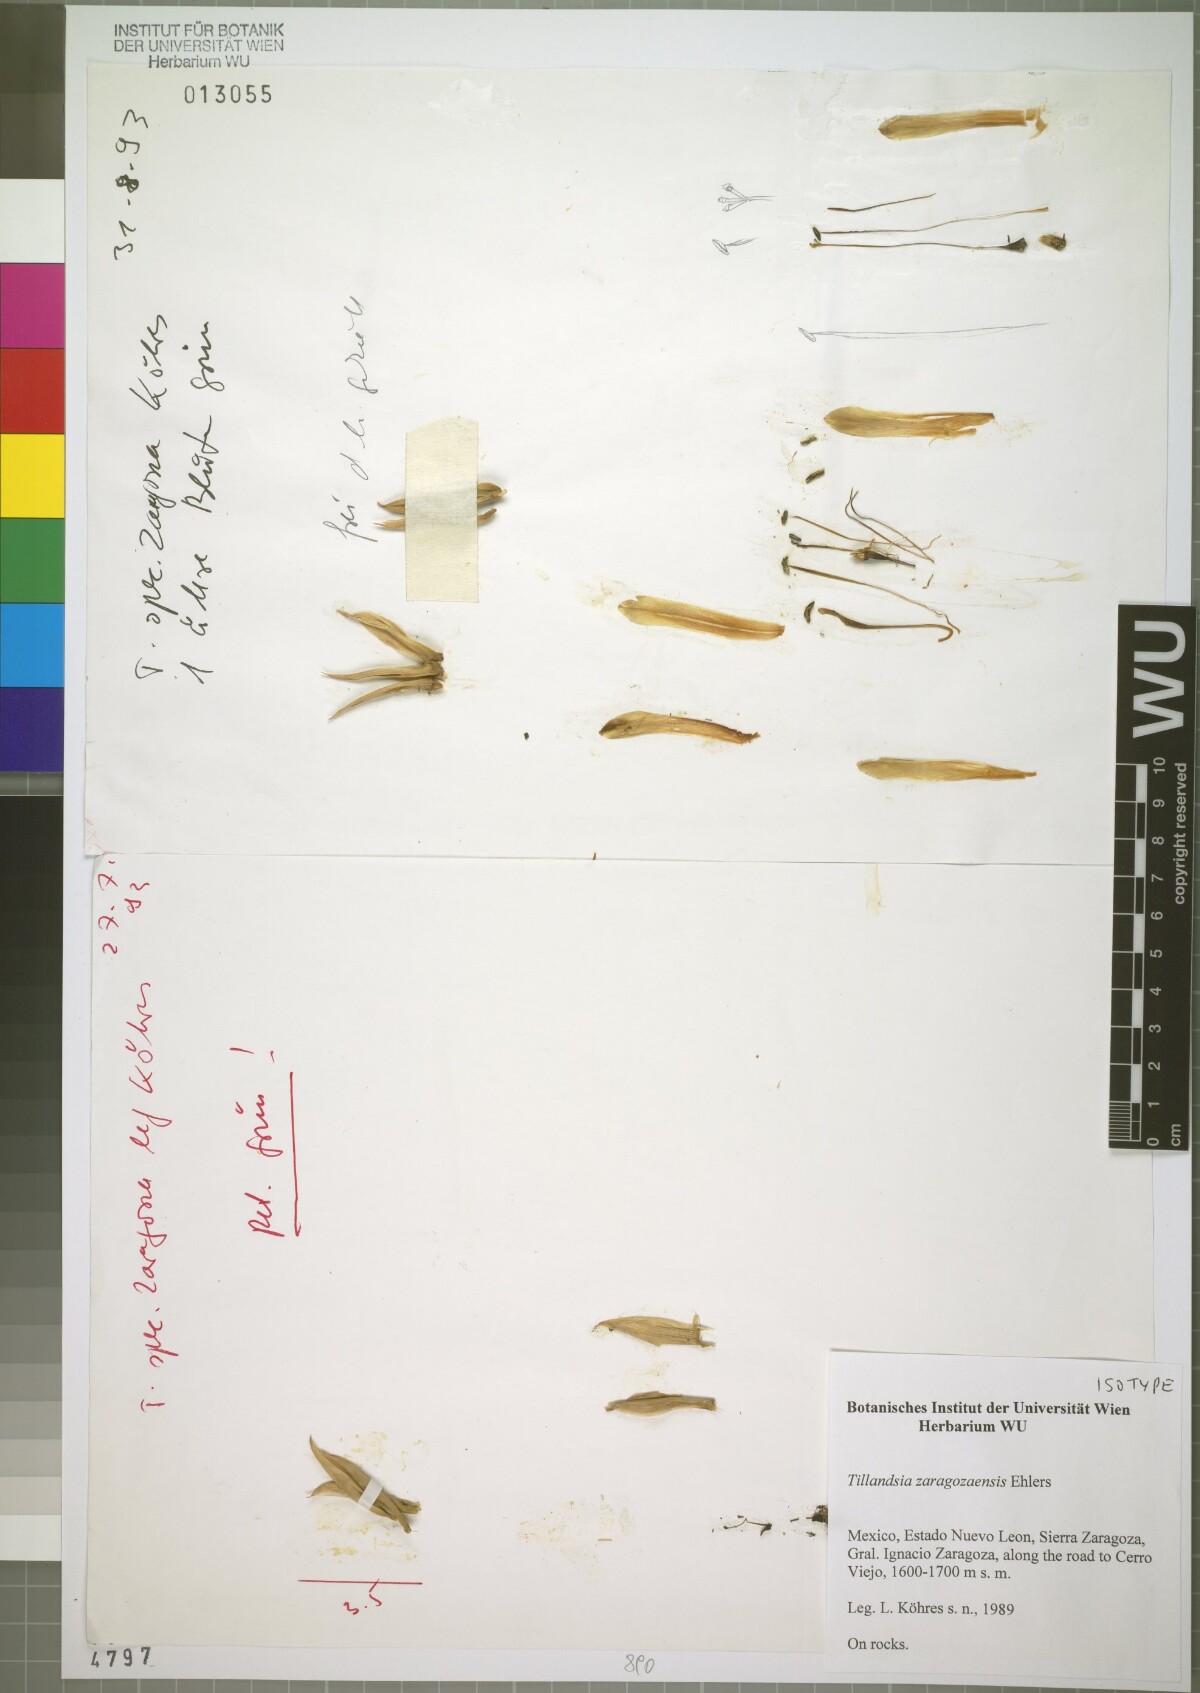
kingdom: Plantae
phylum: Tracheophyta
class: Liliopsida
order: Poales
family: Bromeliaceae
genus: Tillandsia
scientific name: Tillandsia zaragozaensis
